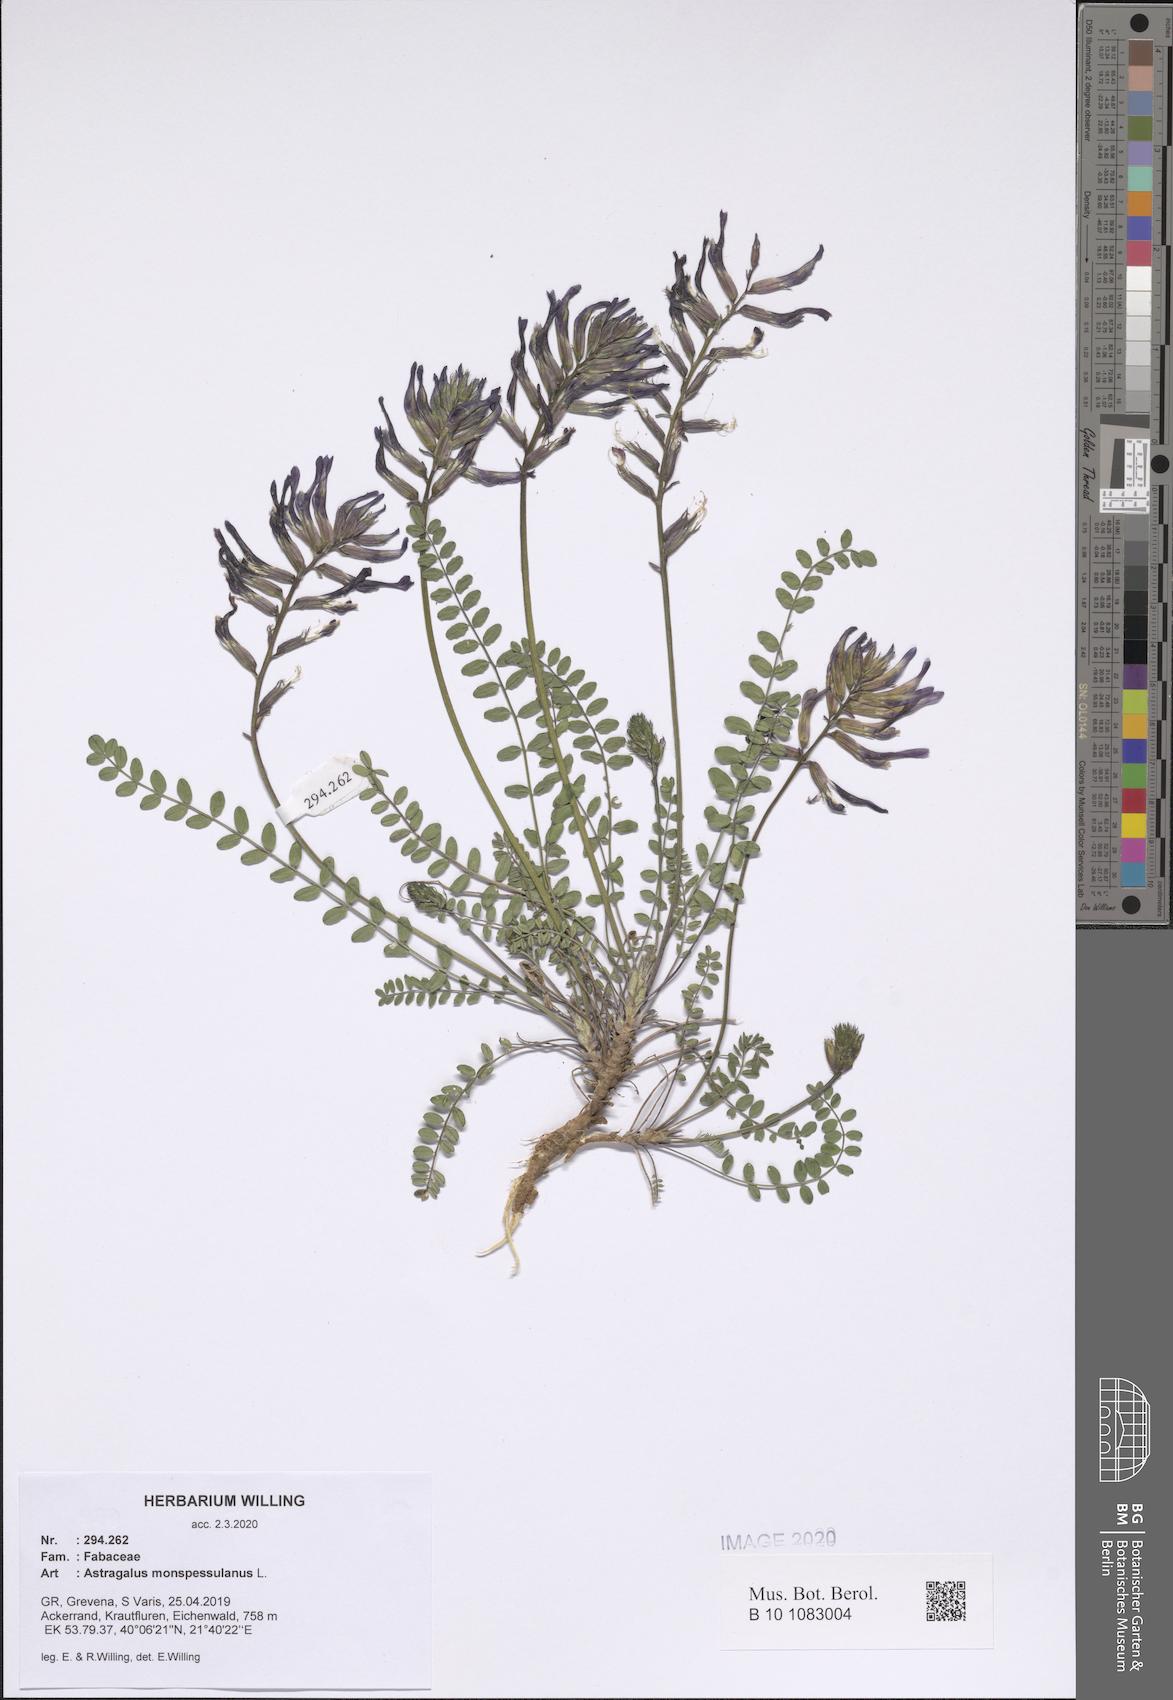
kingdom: Plantae
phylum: Tracheophyta
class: Magnoliopsida
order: Fabales
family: Fabaceae
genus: Astragalus
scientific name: Astragalus monspessulanus
